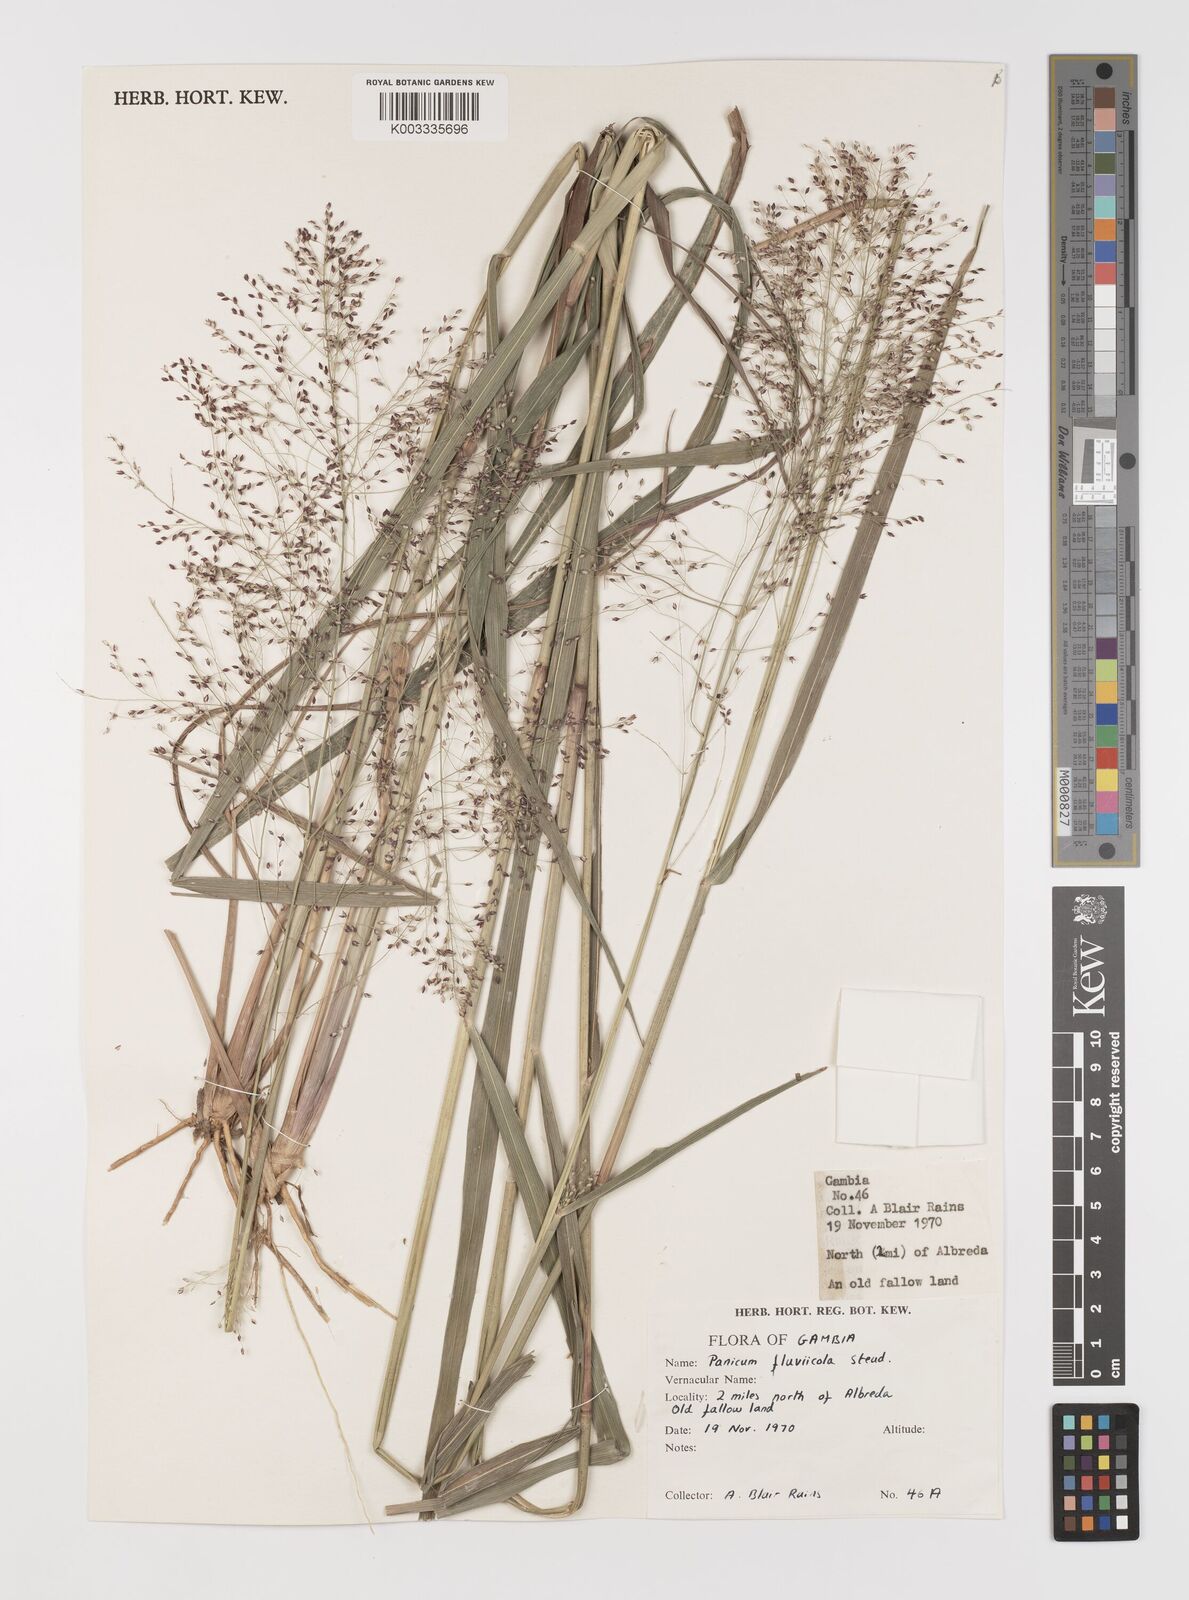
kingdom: Plantae
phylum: Tracheophyta
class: Liliopsida
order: Poales
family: Poaceae
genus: Panicum
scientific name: Panicum fluviicola
